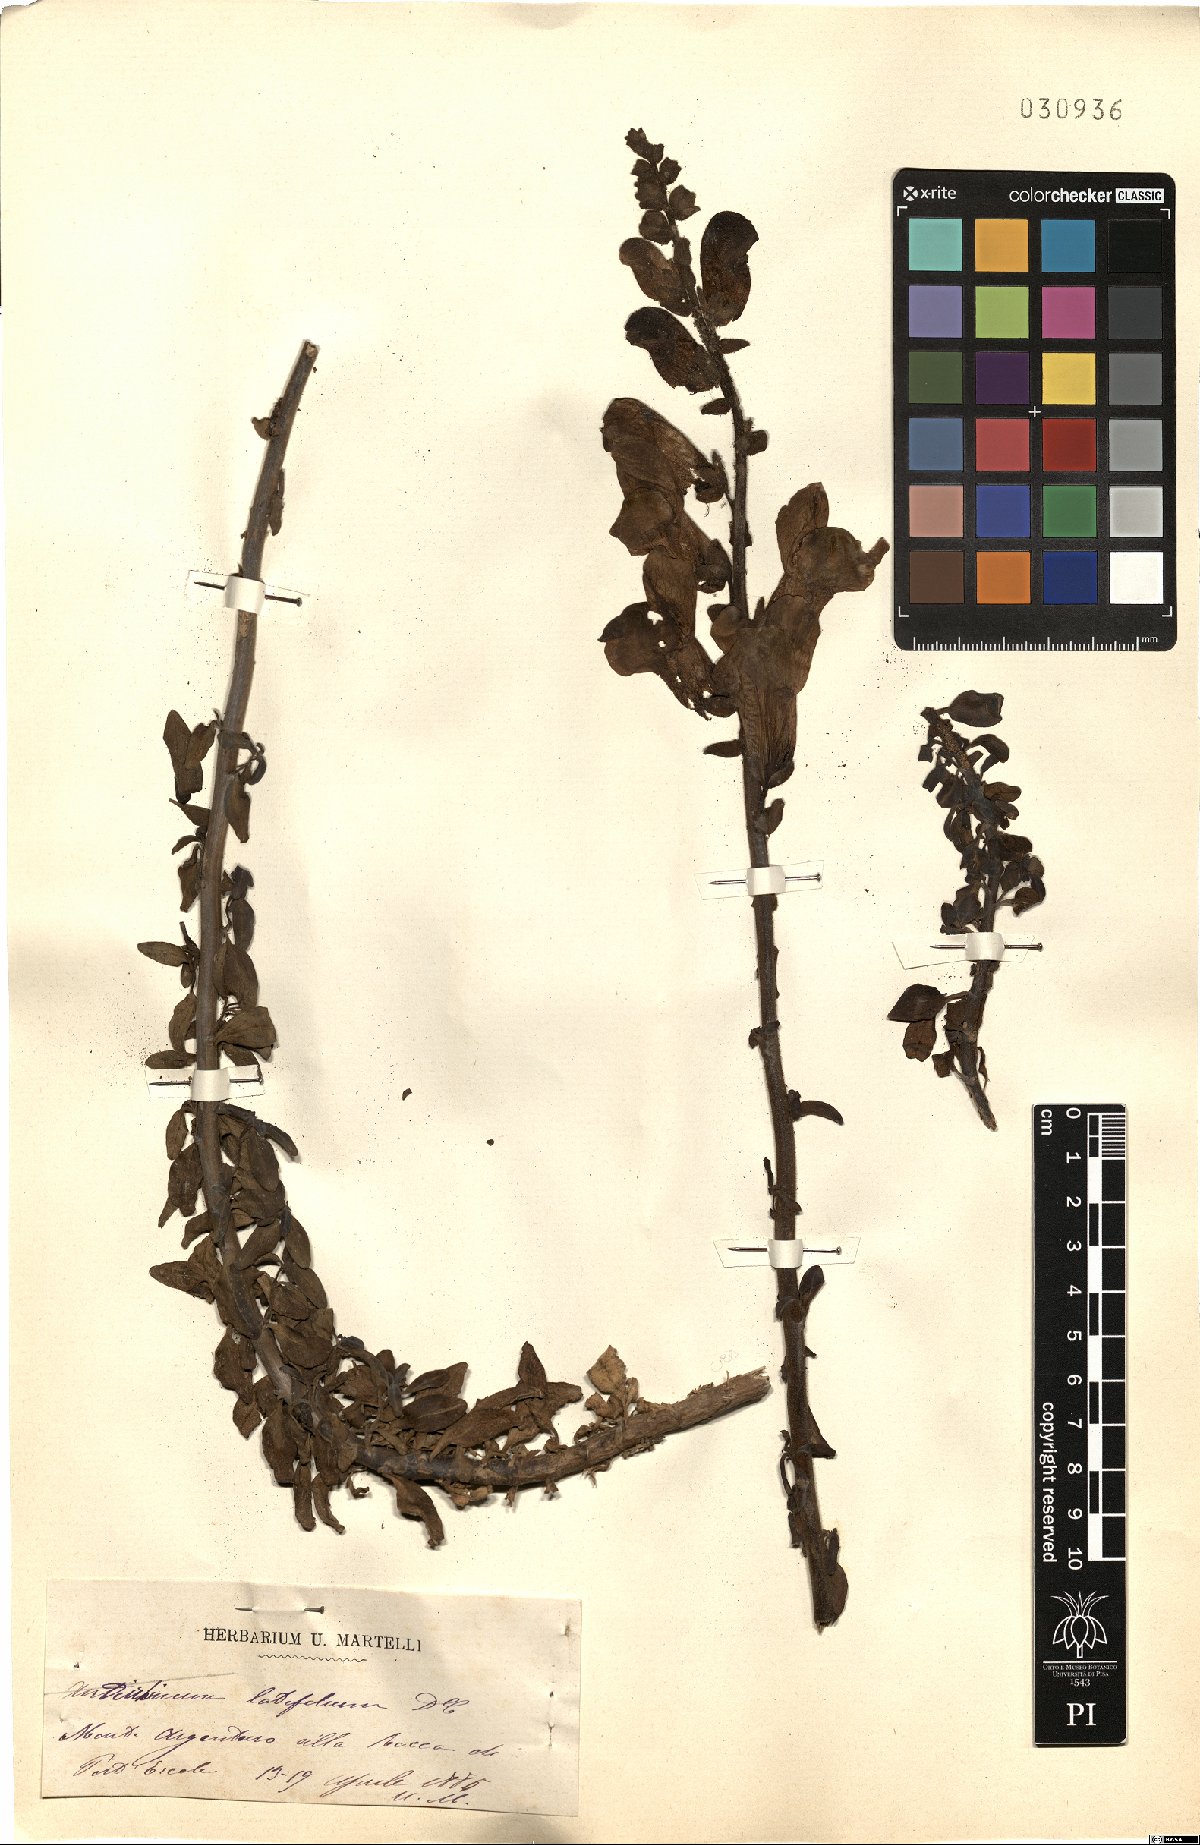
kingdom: Plantae
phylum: Tracheophyta
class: Magnoliopsida
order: Lamiales
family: Plantaginaceae
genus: Antirrhinum
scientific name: Antirrhinum latifolium
